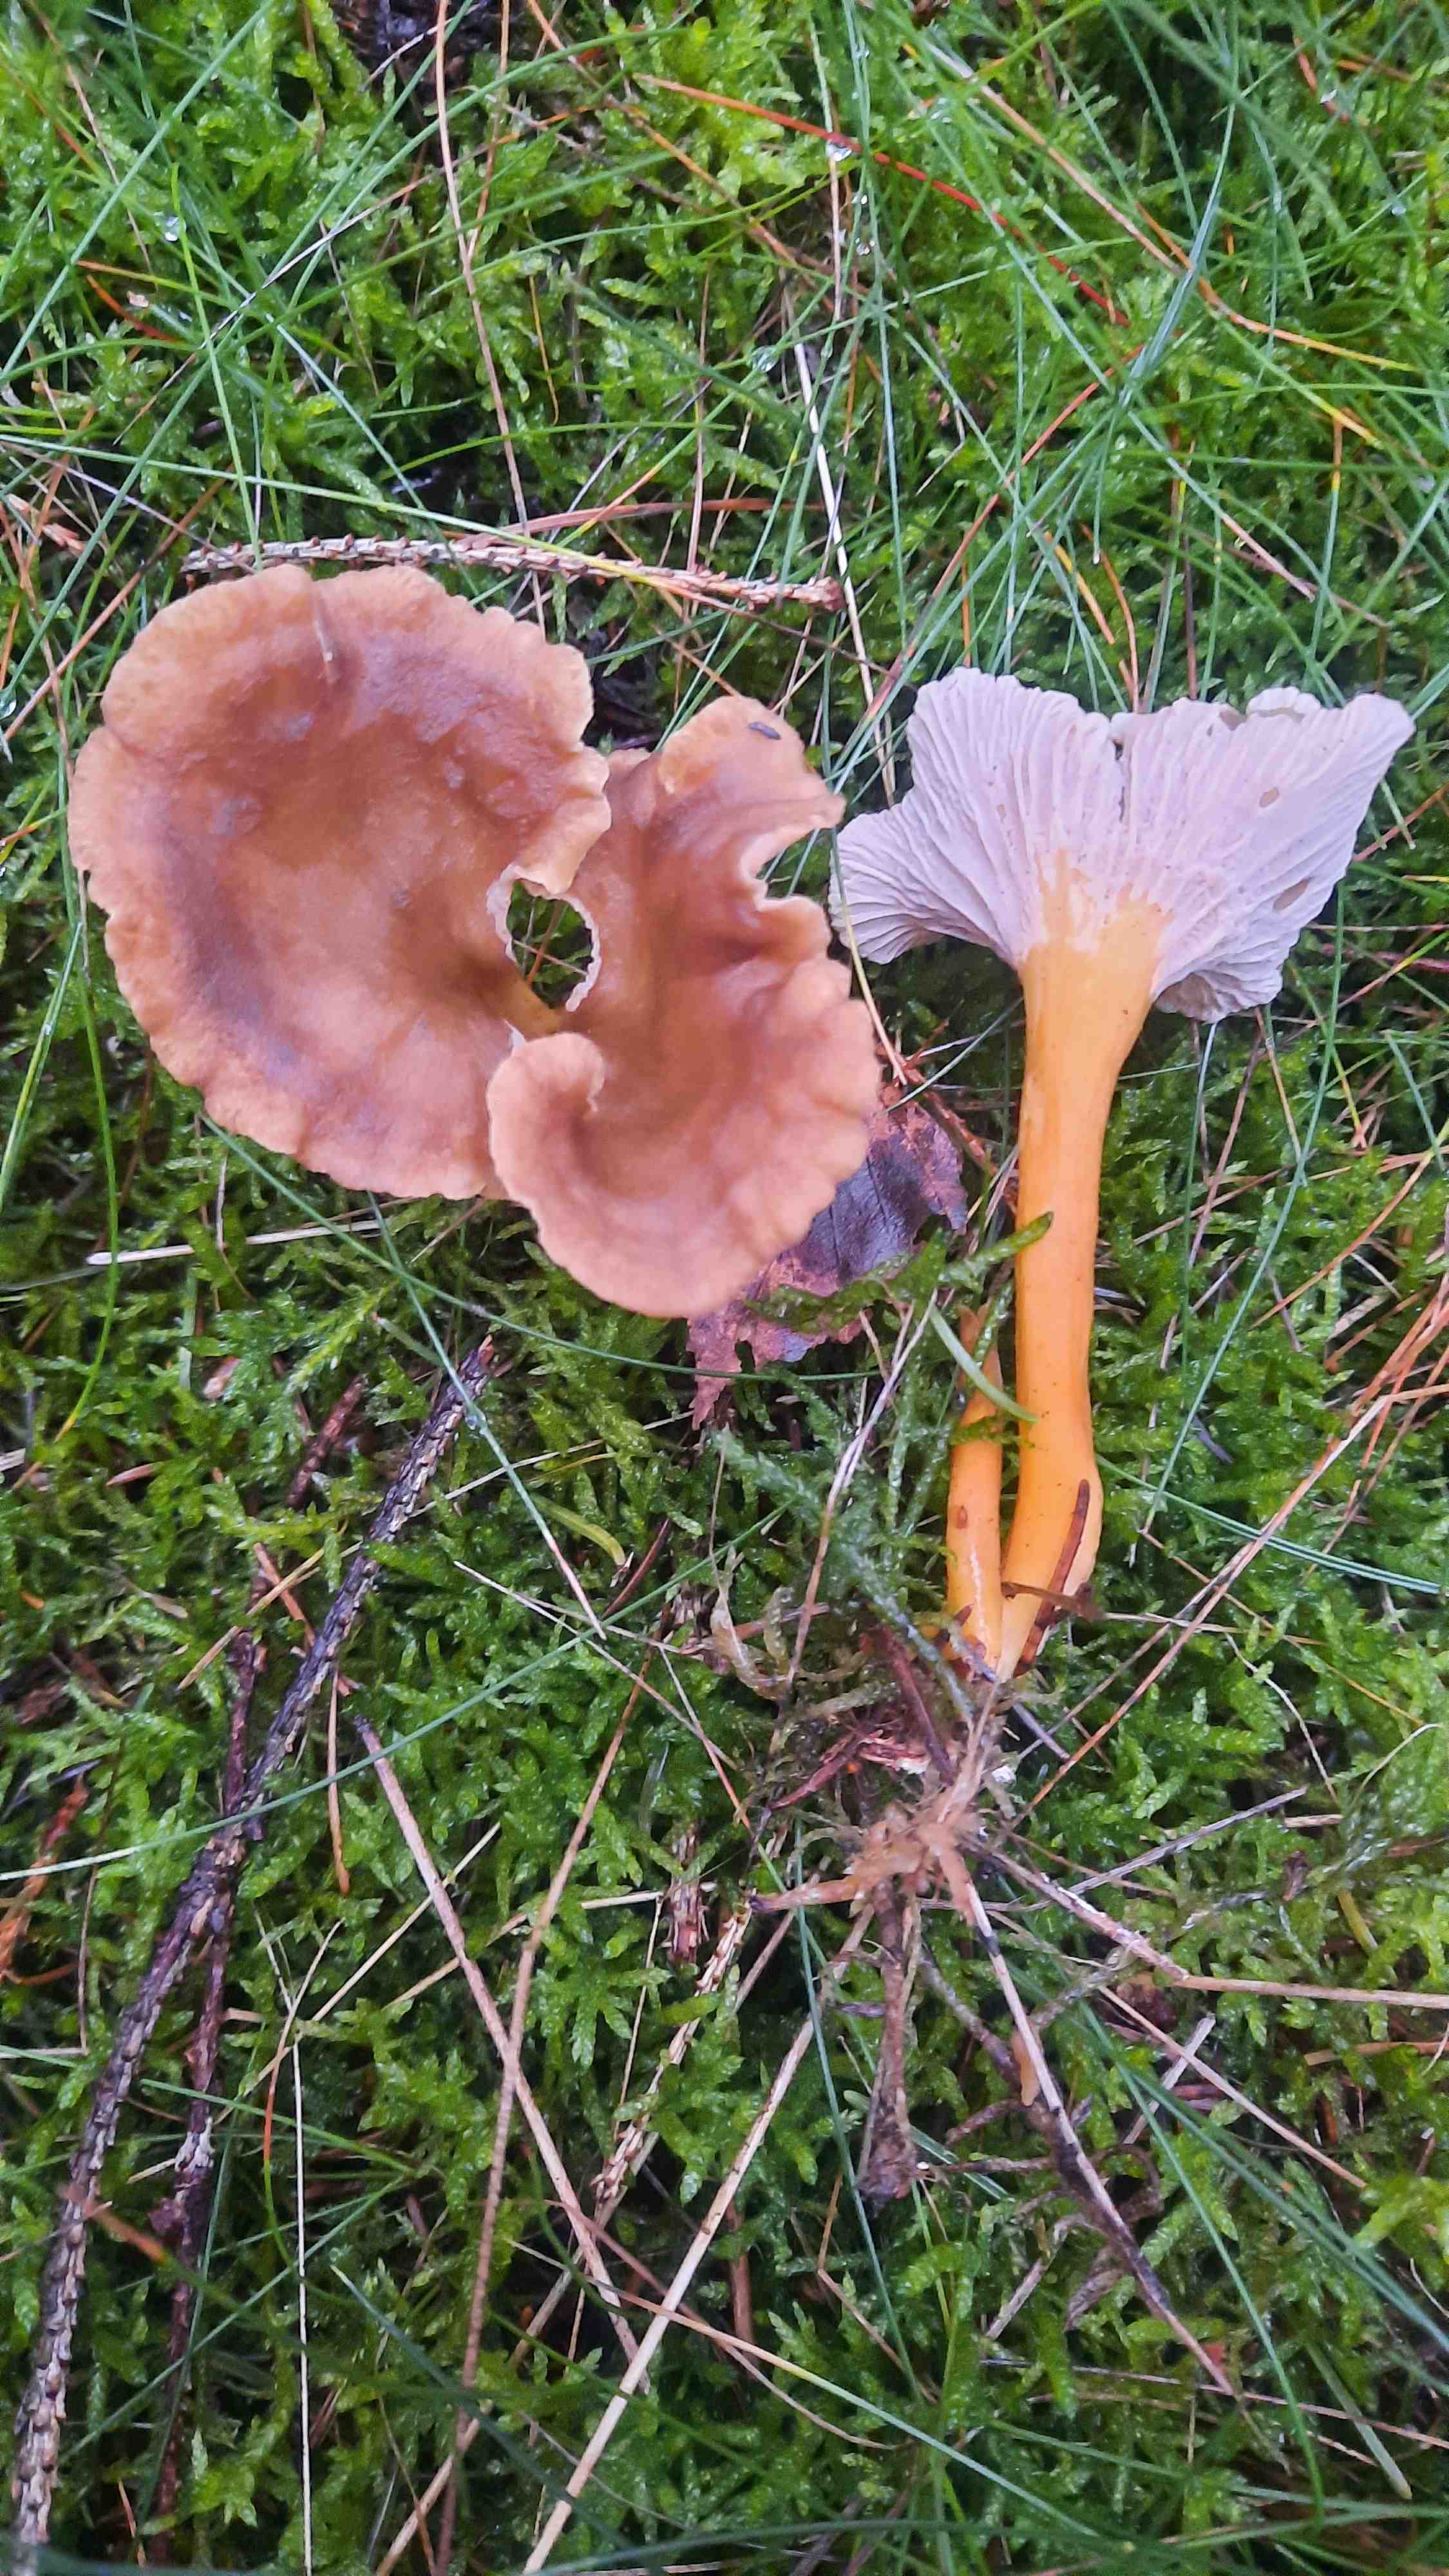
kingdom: Fungi
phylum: Basidiomycota
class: Agaricomycetes
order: Cantharellales
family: Hydnaceae
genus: Craterellus
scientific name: Craterellus tubaeformis
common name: tragt-kantarel
